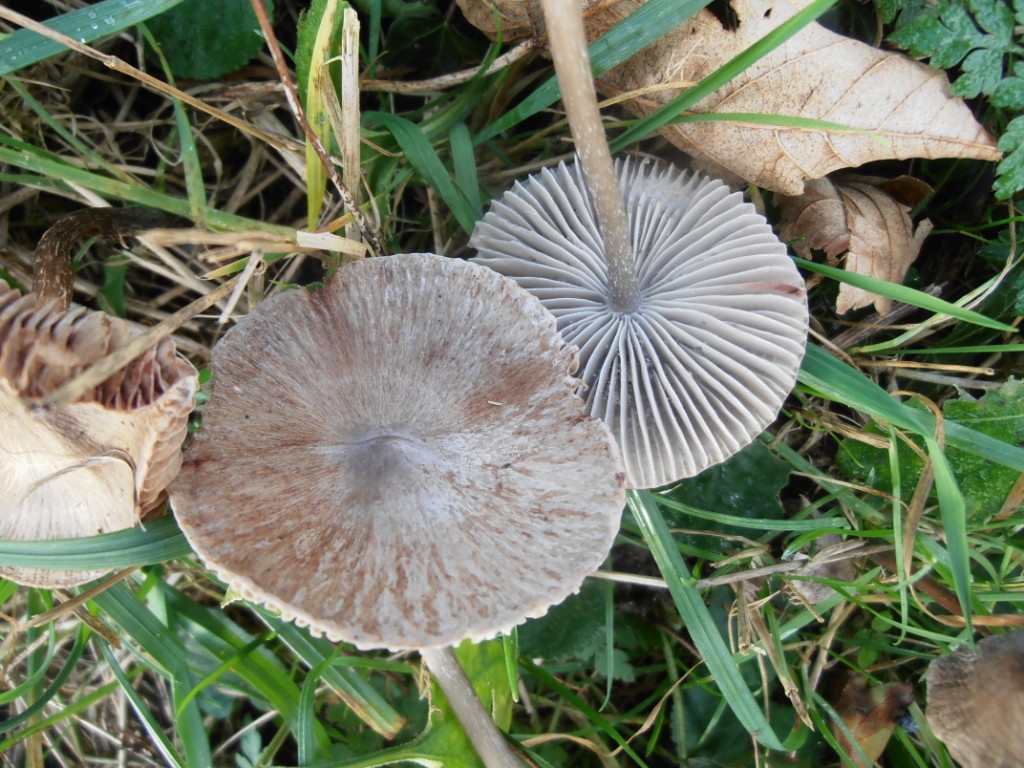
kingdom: Fungi
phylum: Basidiomycota
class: Agaricomycetes
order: Agaricales
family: Mycenaceae
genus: Mycena
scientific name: Mycena polygramma
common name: mangestribet huesvamp
